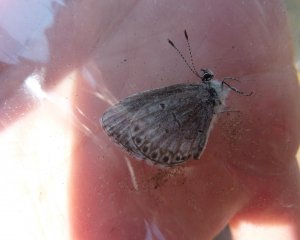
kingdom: Animalia
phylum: Arthropoda
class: Insecta
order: Lepidoptera
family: Lycaenidae
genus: Celastrina
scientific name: Celastrina
